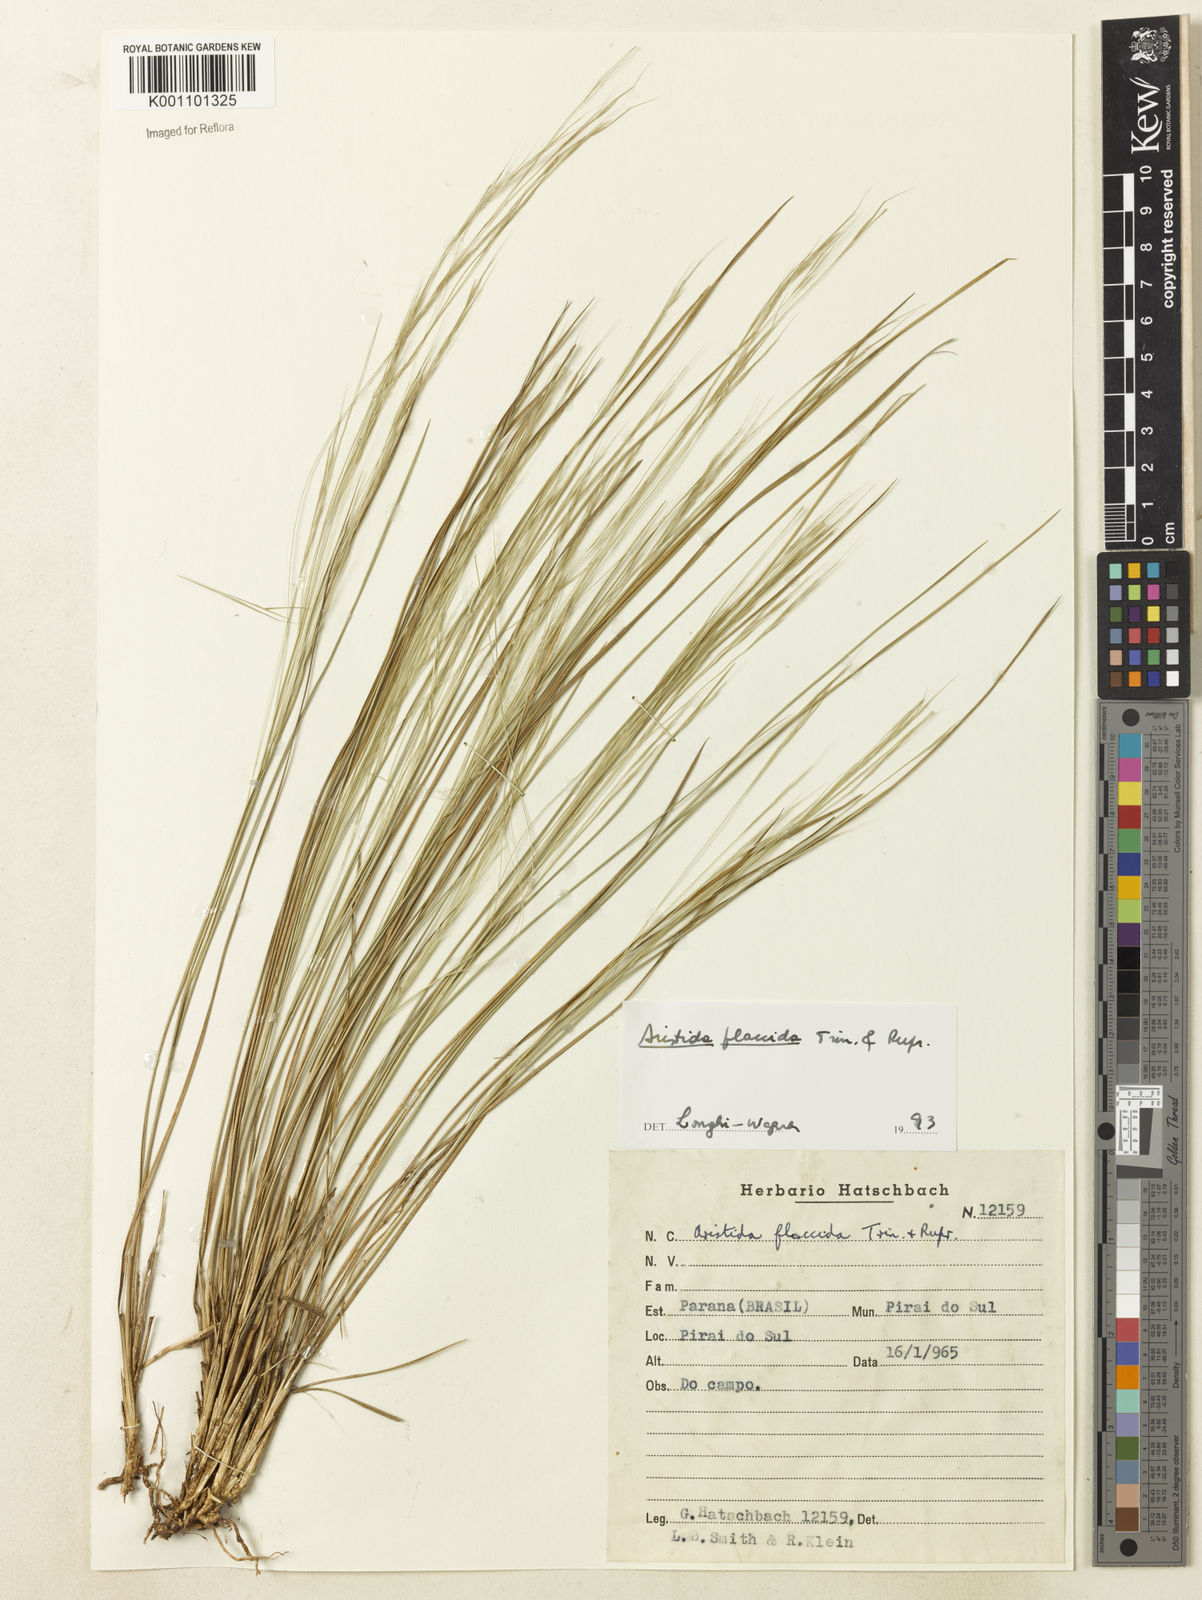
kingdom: Plantae
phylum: Tracheophyta
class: Liliopsida
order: Poales
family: Poaceae
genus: Aristida
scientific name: Aristida flaccida
